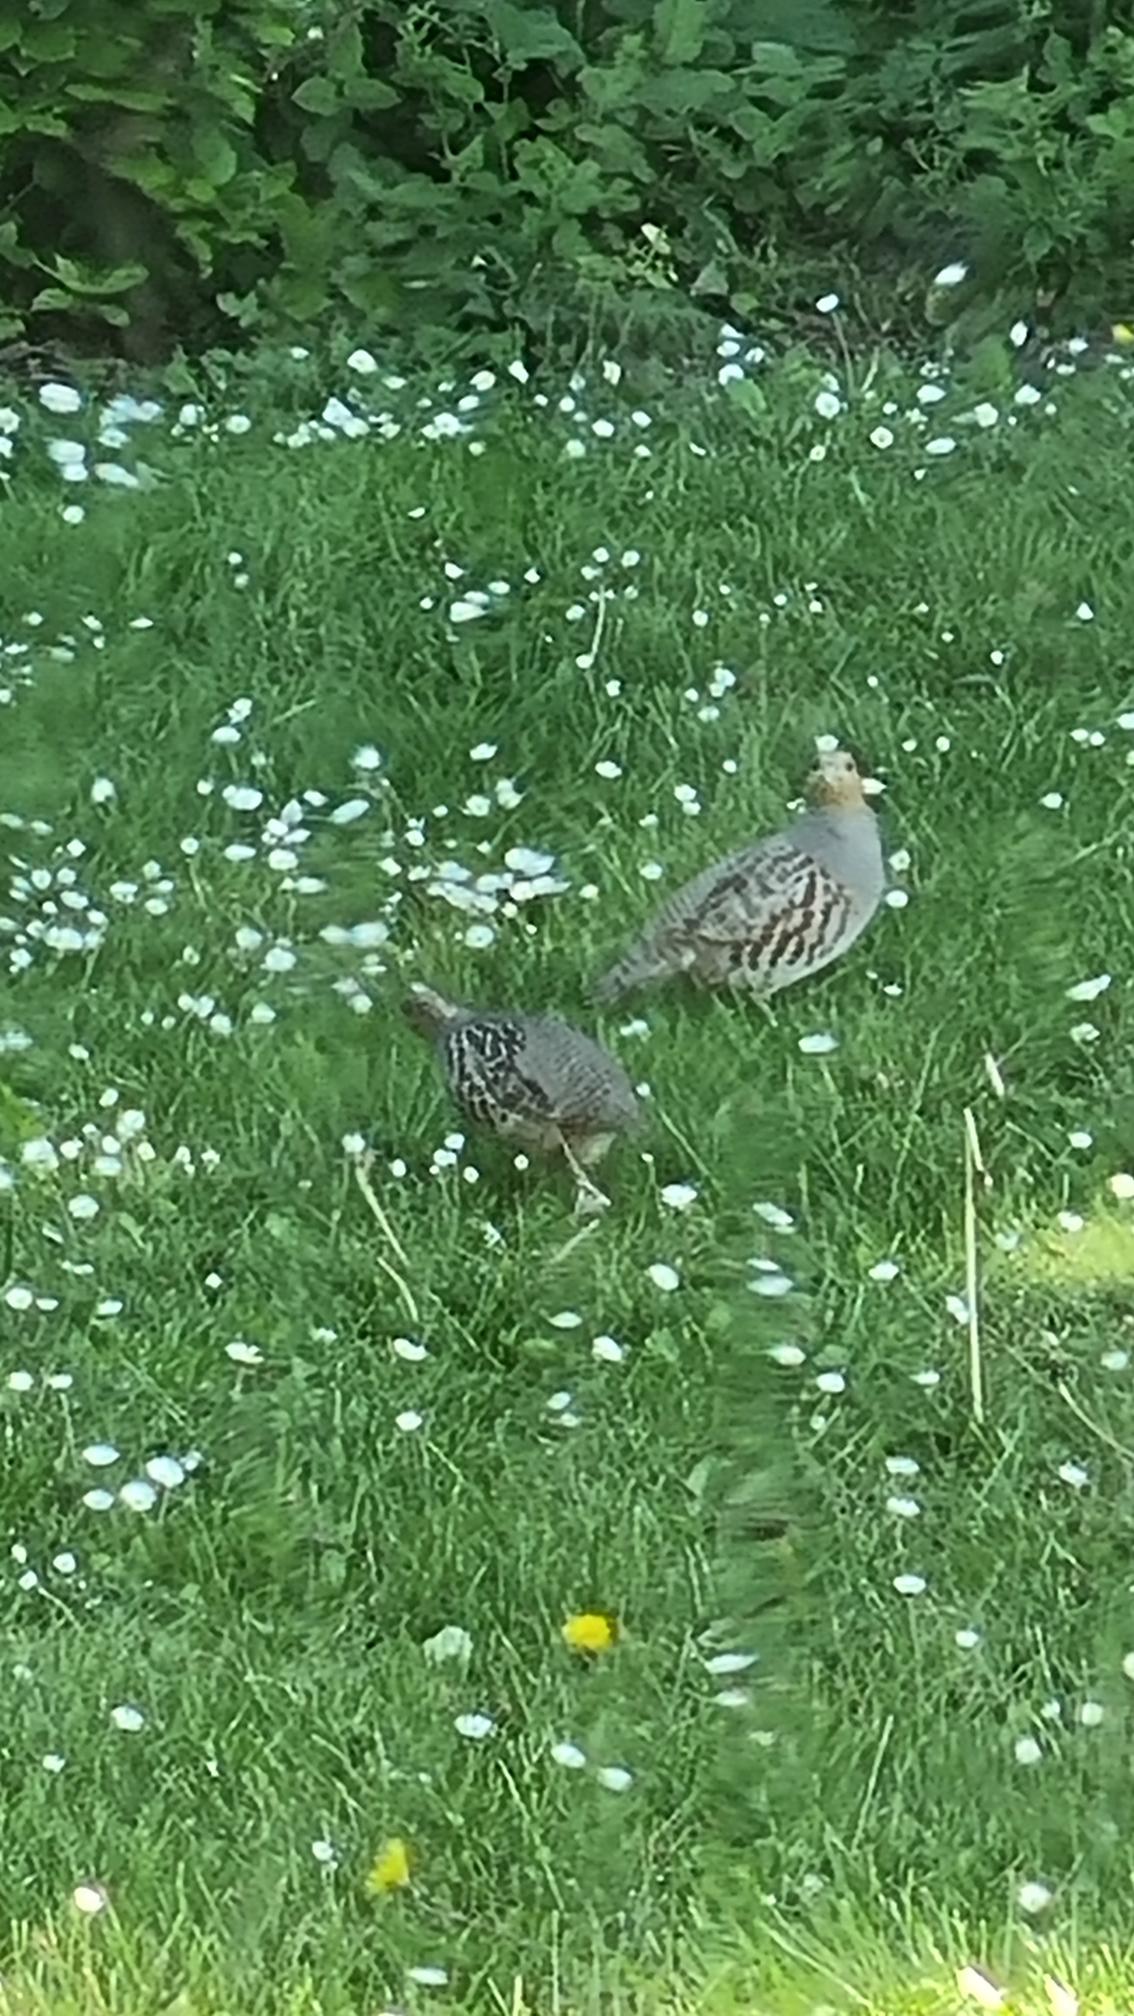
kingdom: Animalia
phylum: Chordata
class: Aves
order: Galliformes
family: Phasianidae
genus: Perdix
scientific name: Perdix perdix
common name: Agerhøne
